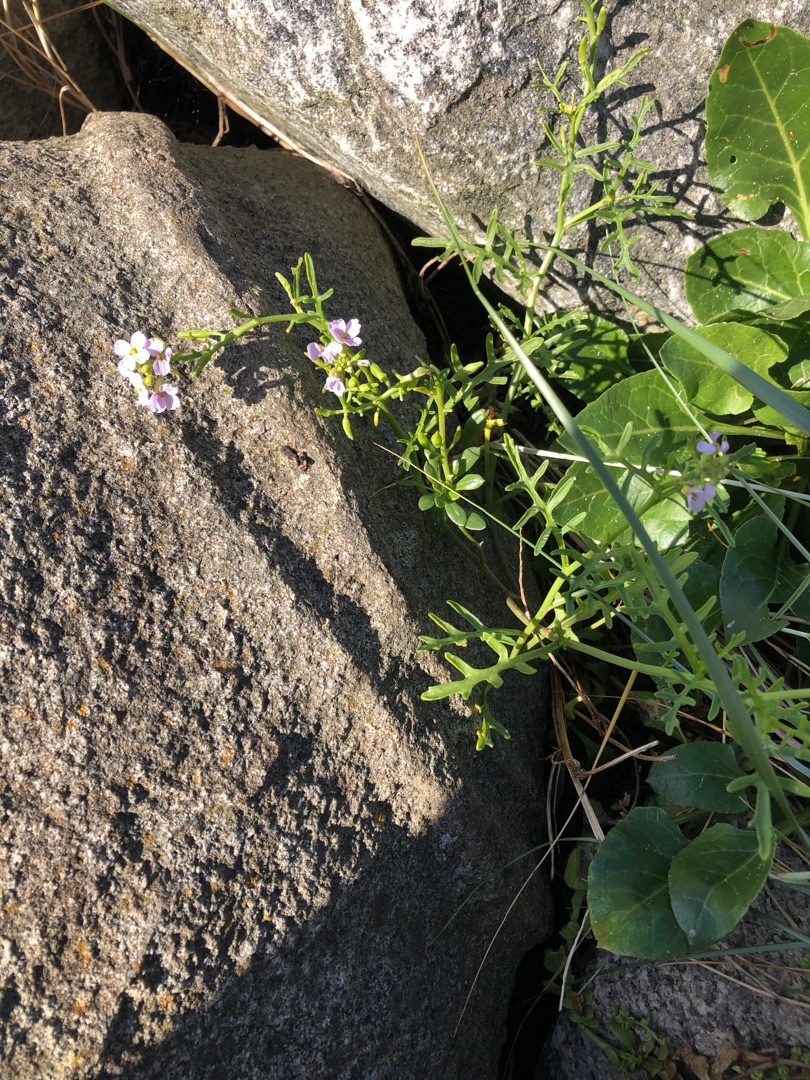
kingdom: Plantae
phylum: Tracheophyta
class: Magnoliopsida
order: Brassicales
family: Brassicaceae
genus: Cakile
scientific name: Cakile maritima
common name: Strandsennep
